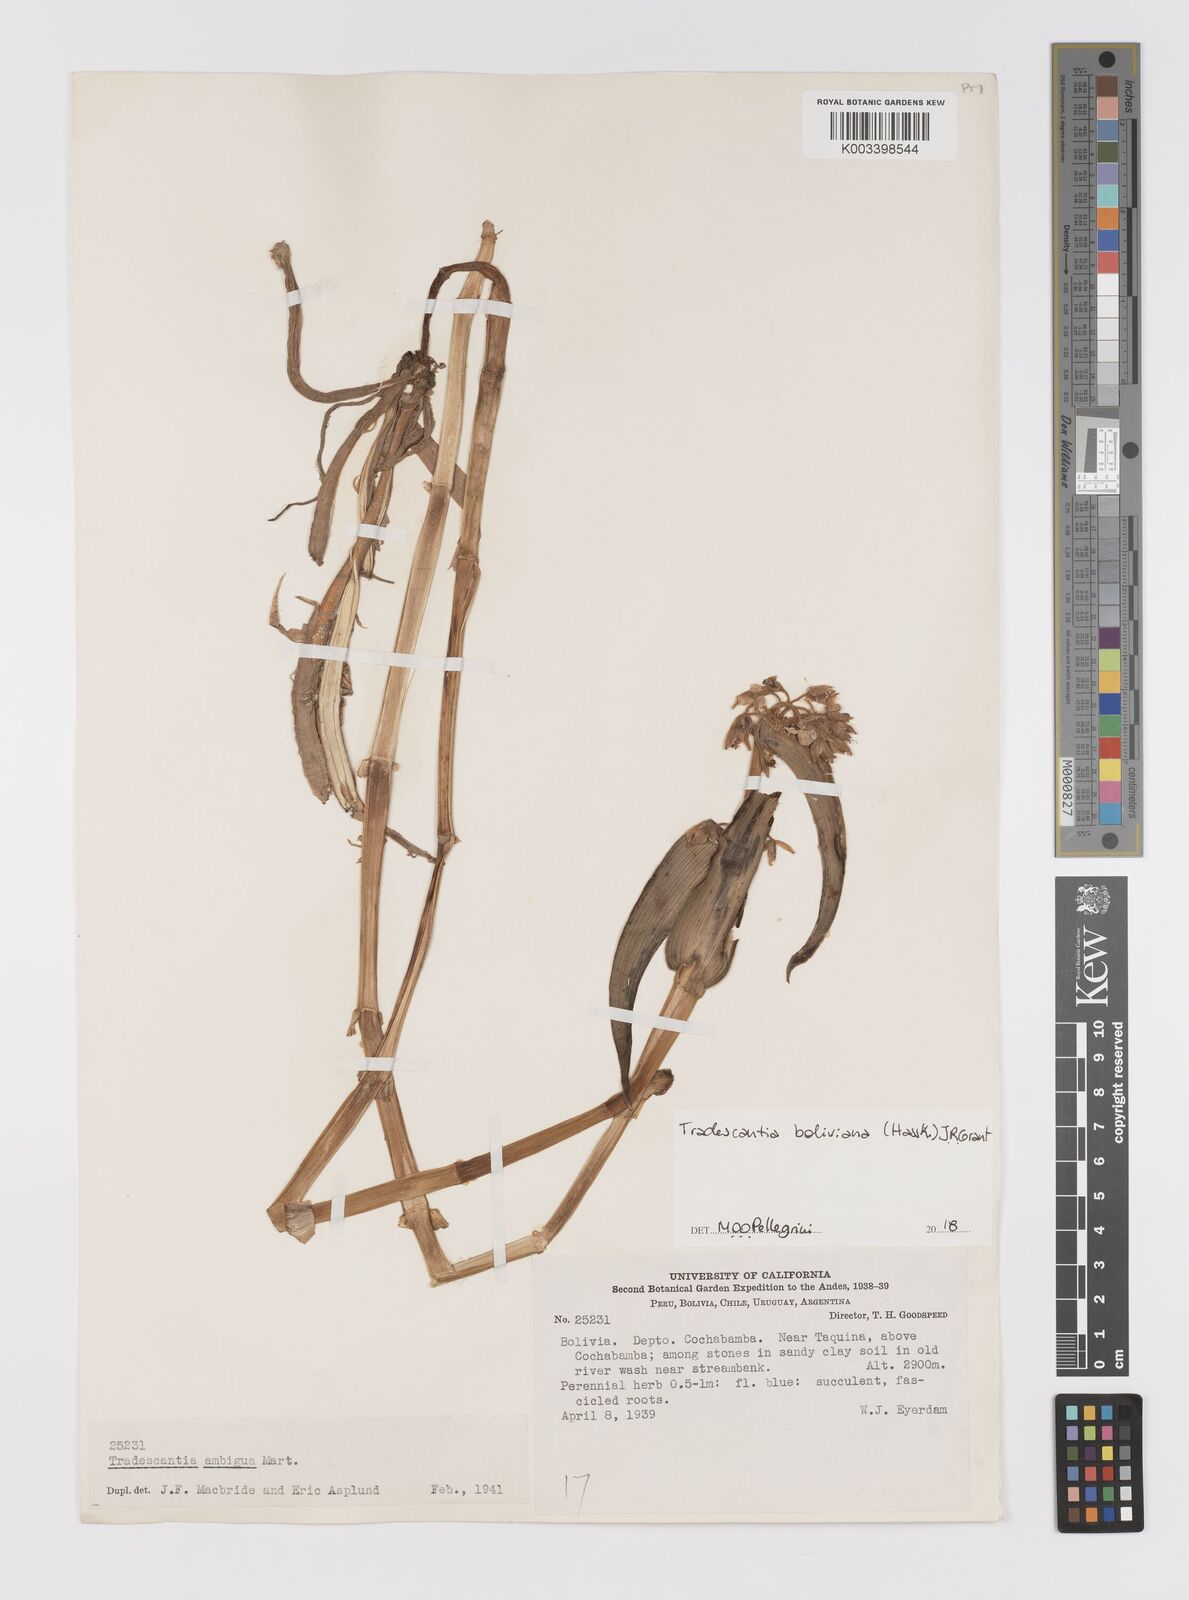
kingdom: Plantae
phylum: Tracheophyta
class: Liliopsida
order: Commelinales
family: Commelinaceae
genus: Tradescantia
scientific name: Tradescantia boliviana
